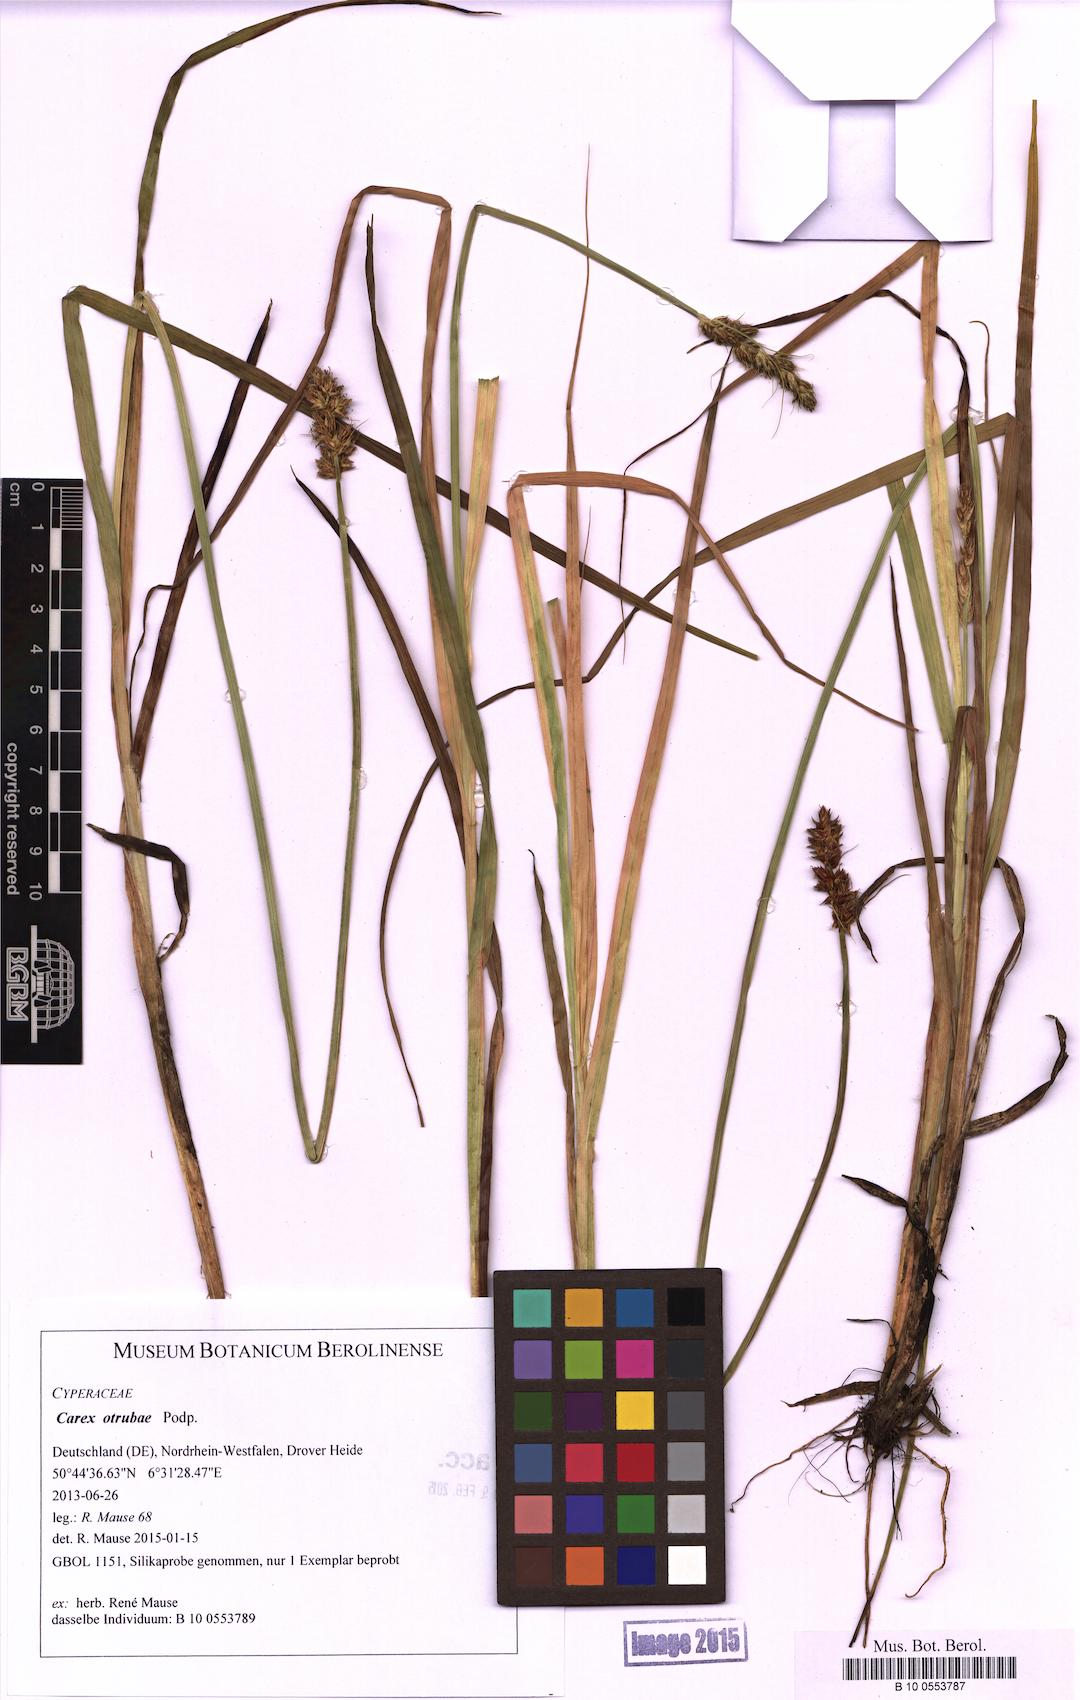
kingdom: Plantae
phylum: Tracheophyta
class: Liliopsida
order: Poales
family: Cyperaceae
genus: Carex
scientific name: Carex otrubae
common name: False fox-sedge
